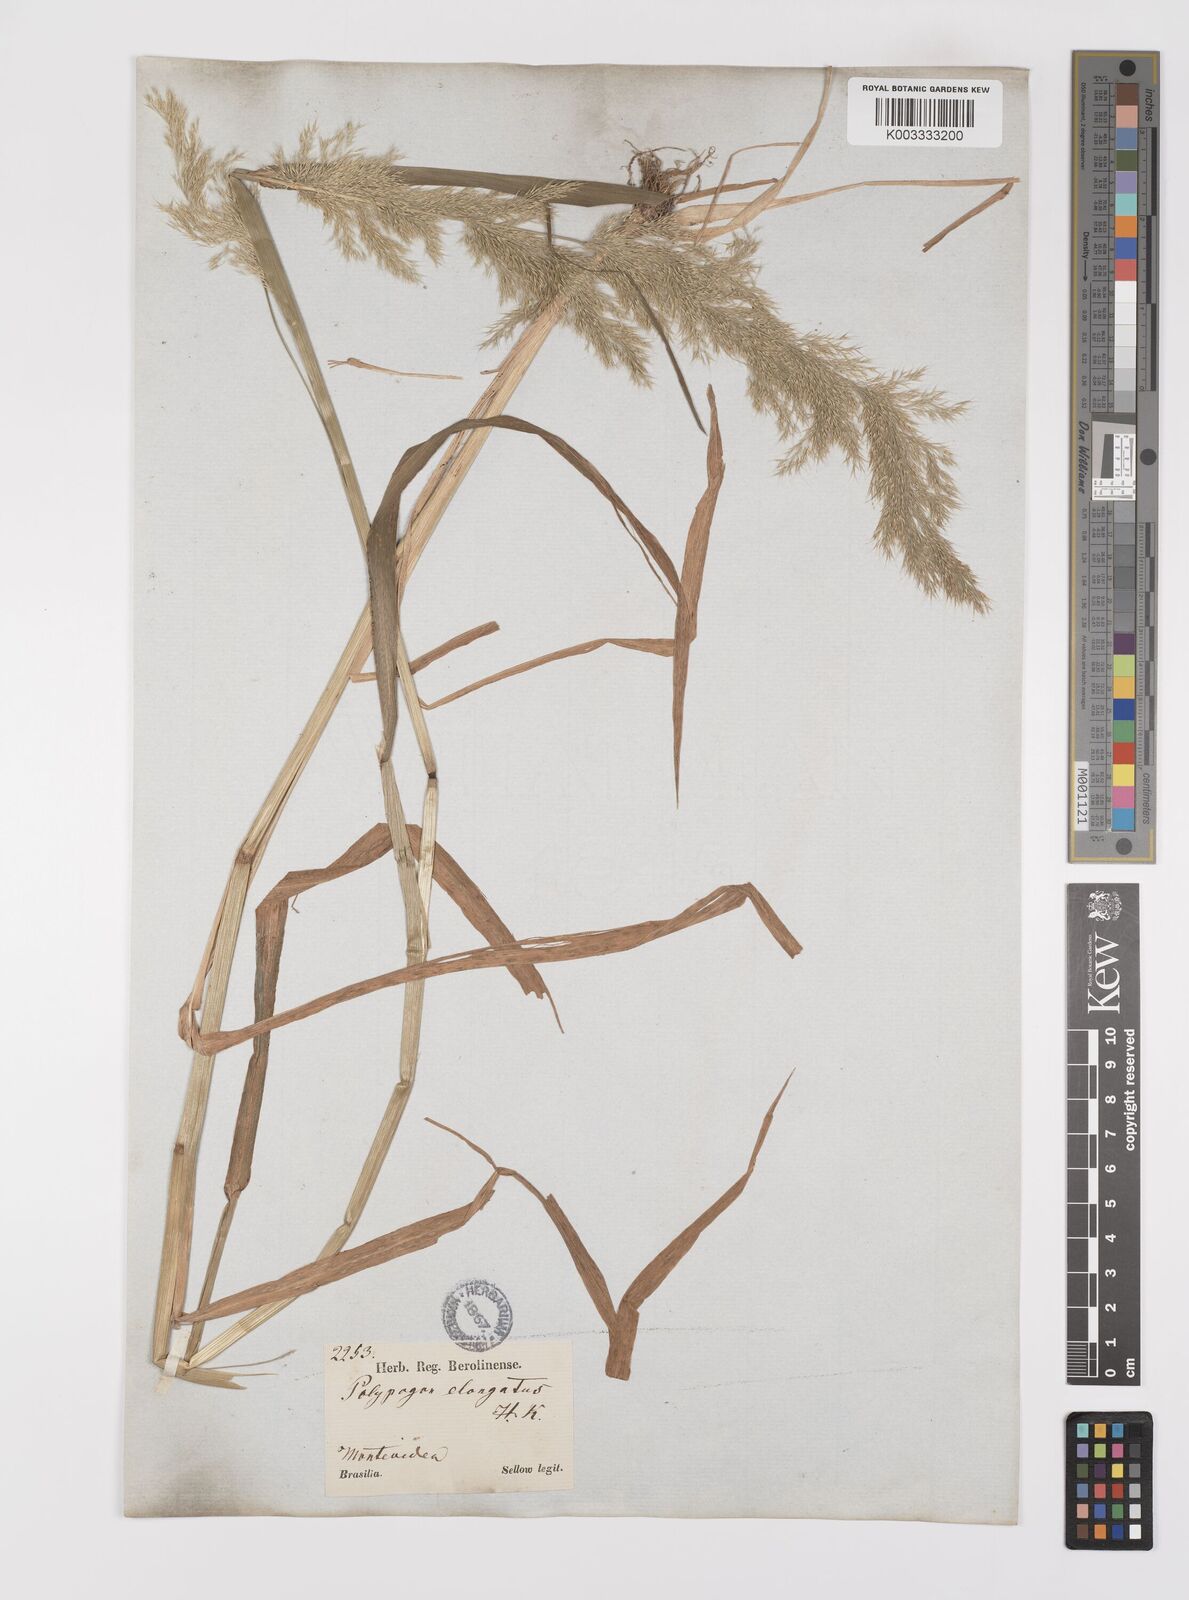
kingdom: Plantae
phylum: Tracheophyta
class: Liliopsida
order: Poales
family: Poaceae
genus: Polypogon
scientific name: Polypogon elongatus
